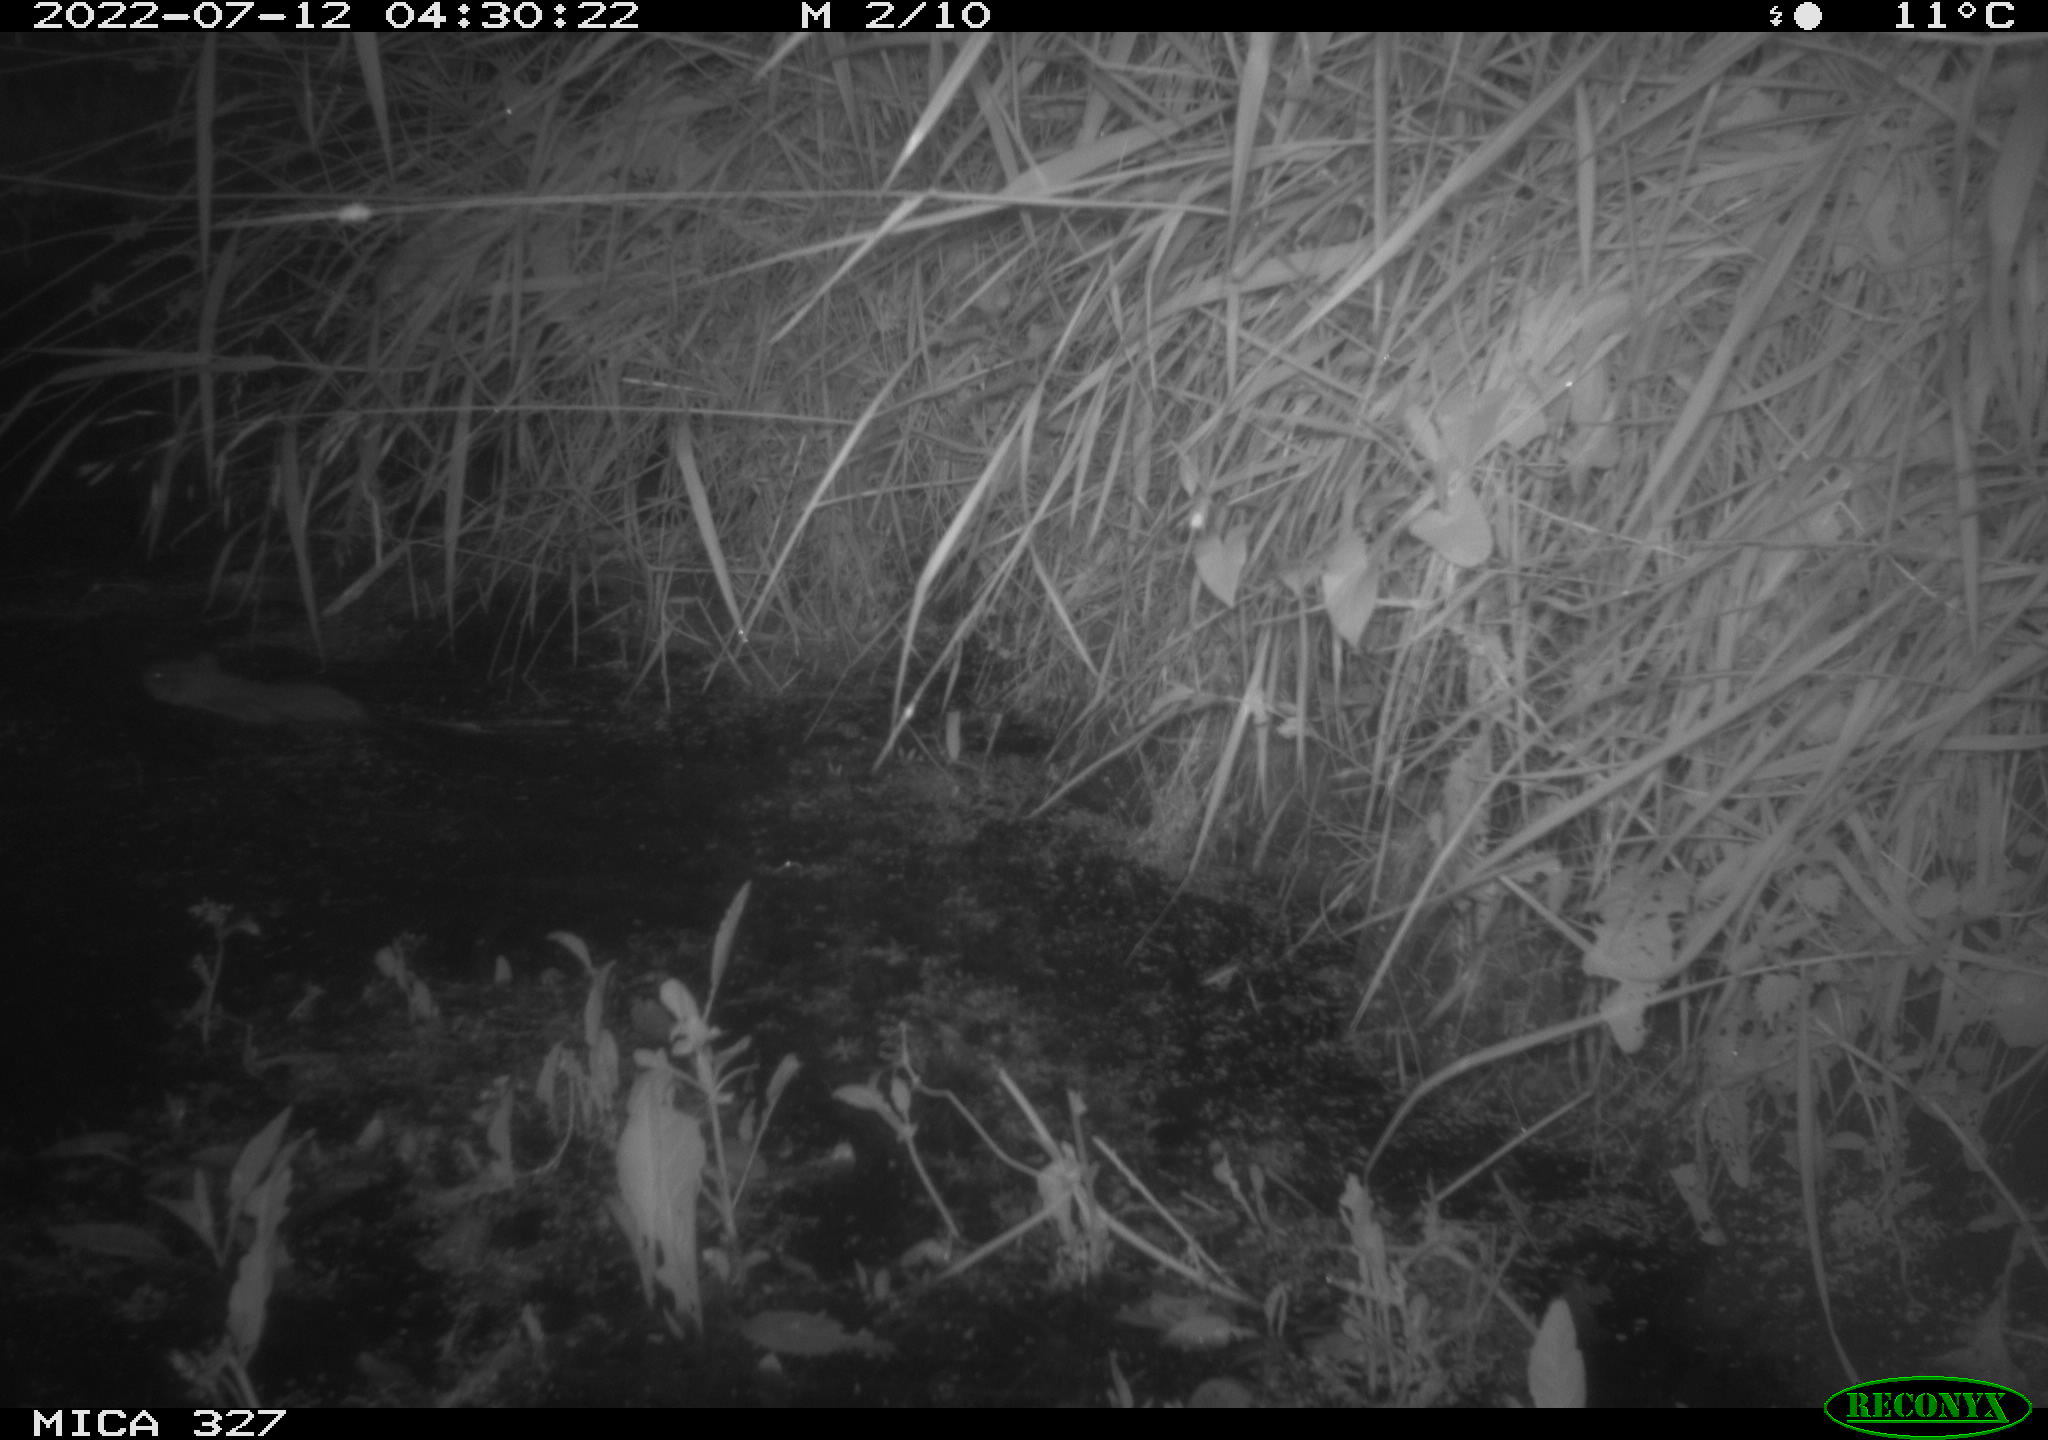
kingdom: Animalia
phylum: Chordata
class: Mammalia
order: Rodentia
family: Cricetidae
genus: Ondatra
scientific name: Ondatra zibethicus
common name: Muskrat
